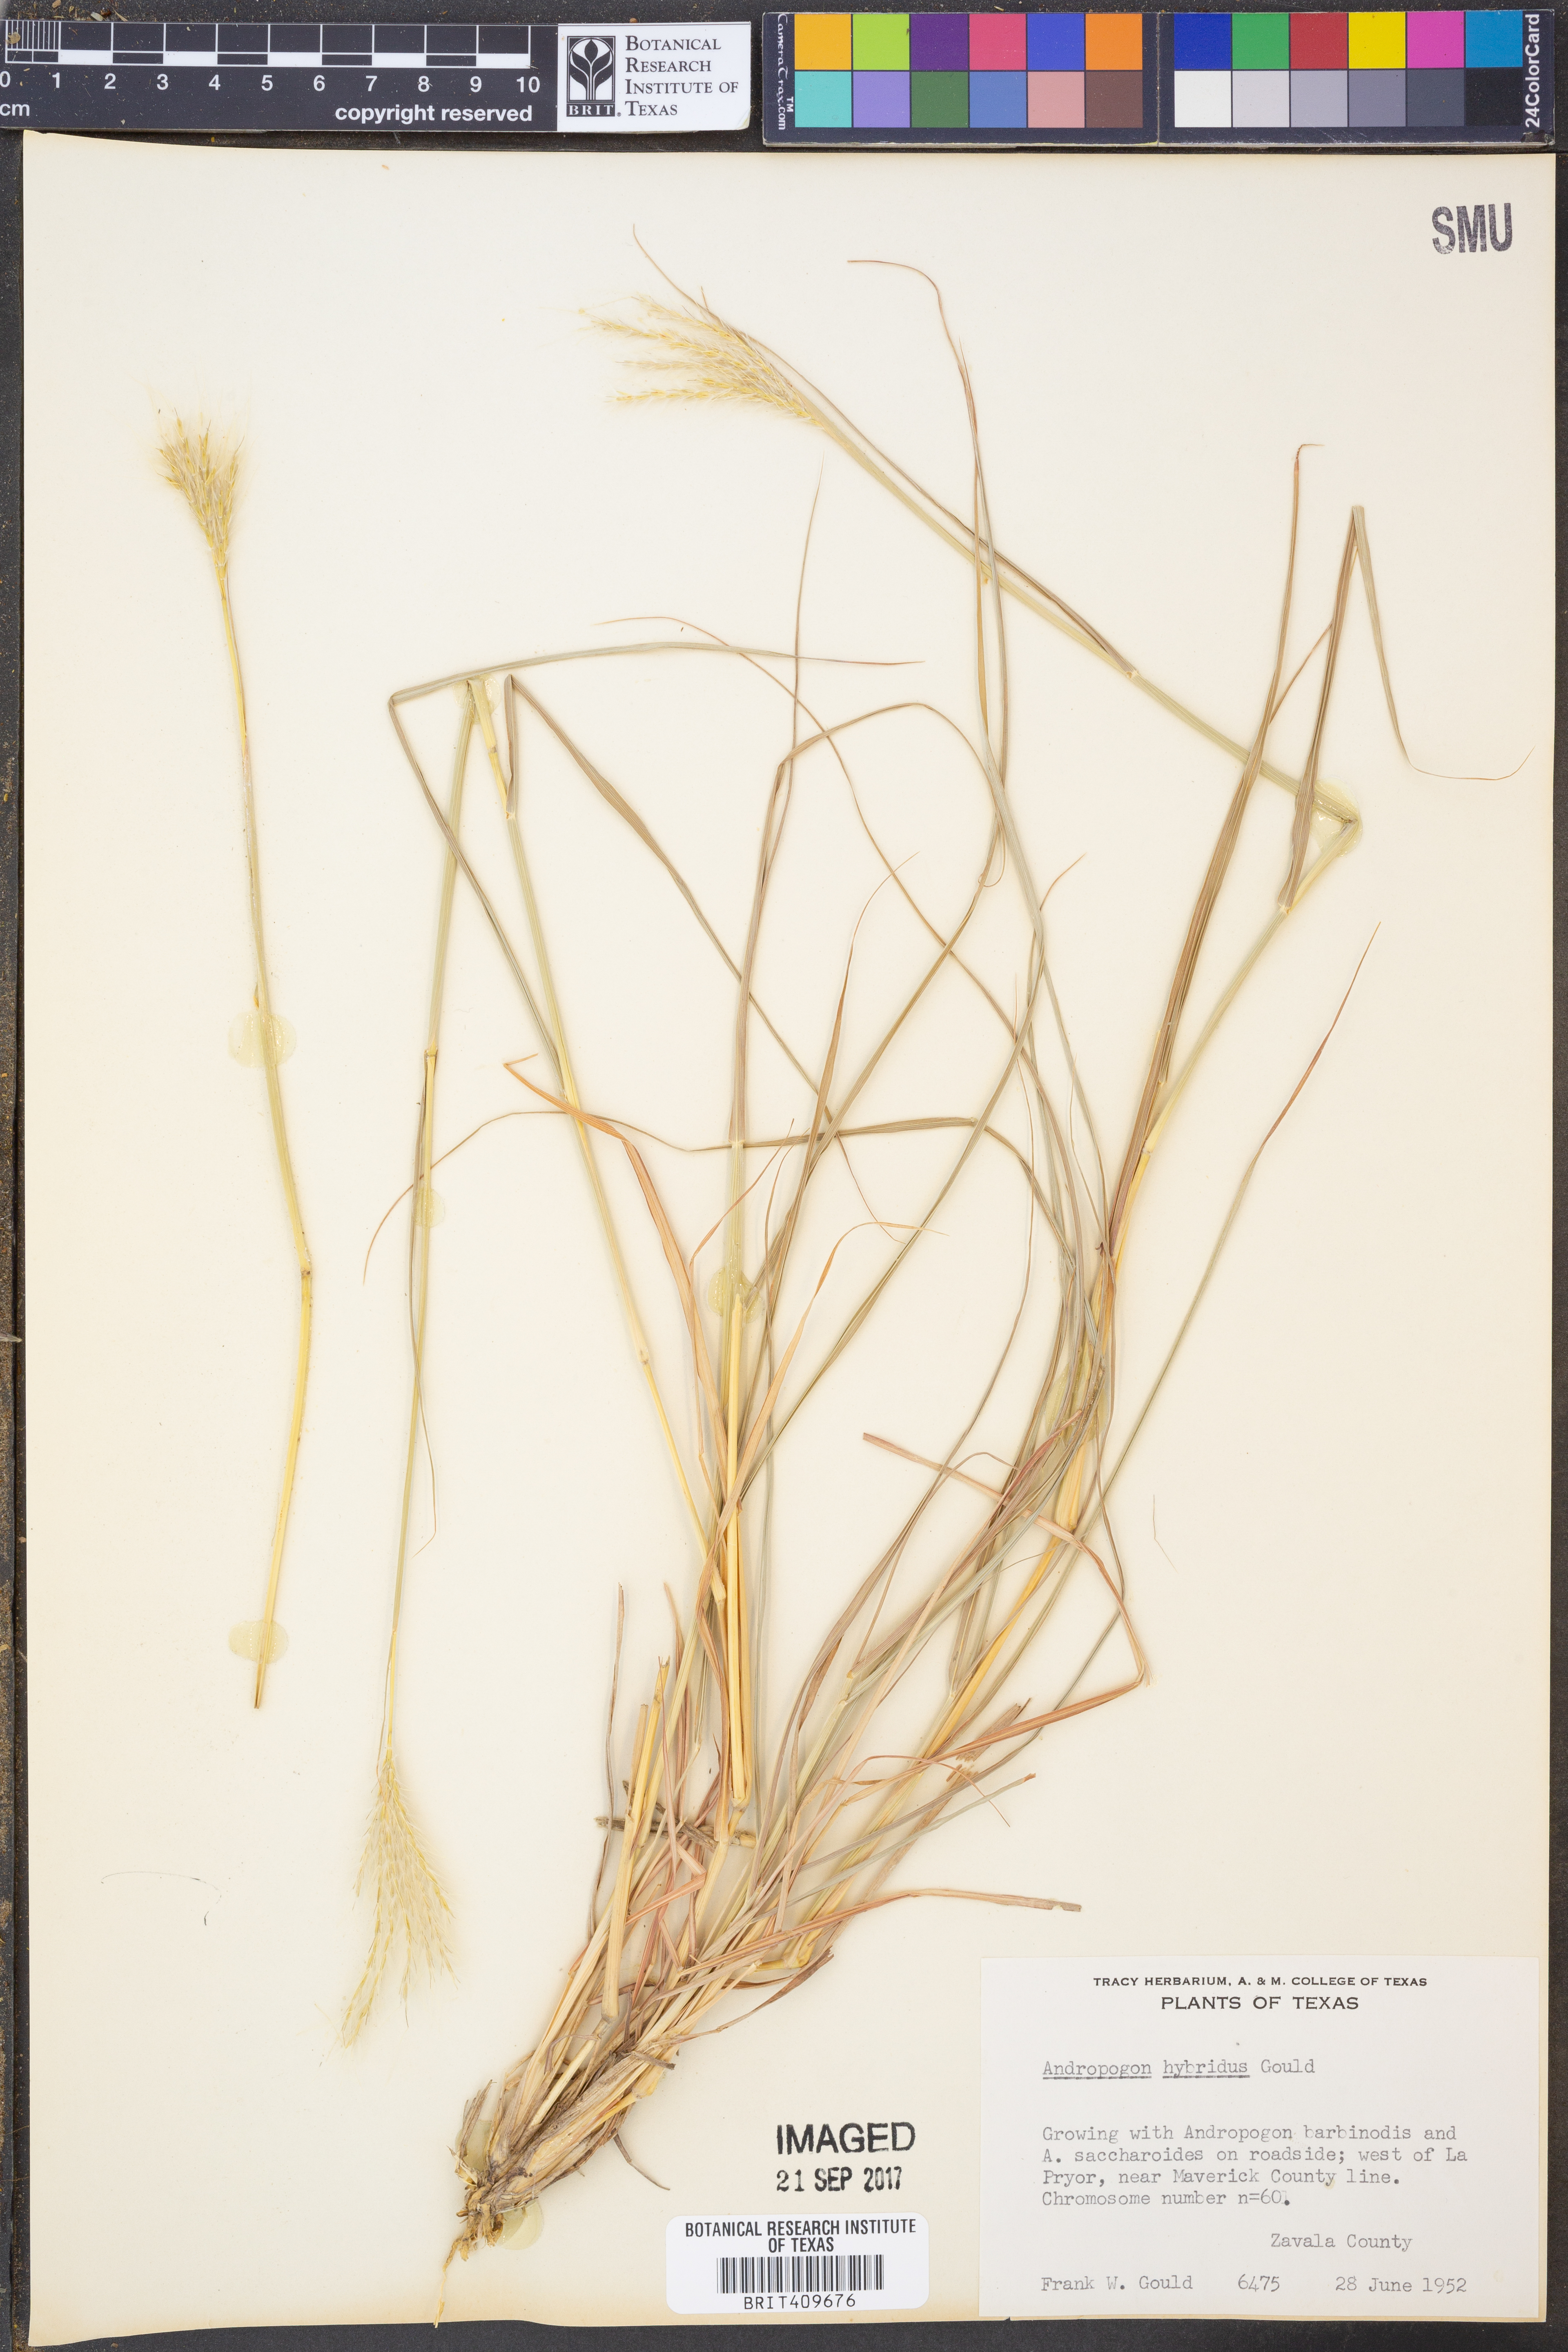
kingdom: Plantae
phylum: Tracheophyta
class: Liliopsida
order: Poales
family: Poaceae
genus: Bothriochloa
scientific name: Bothriochloa hybrida
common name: Hybrid bluestem
